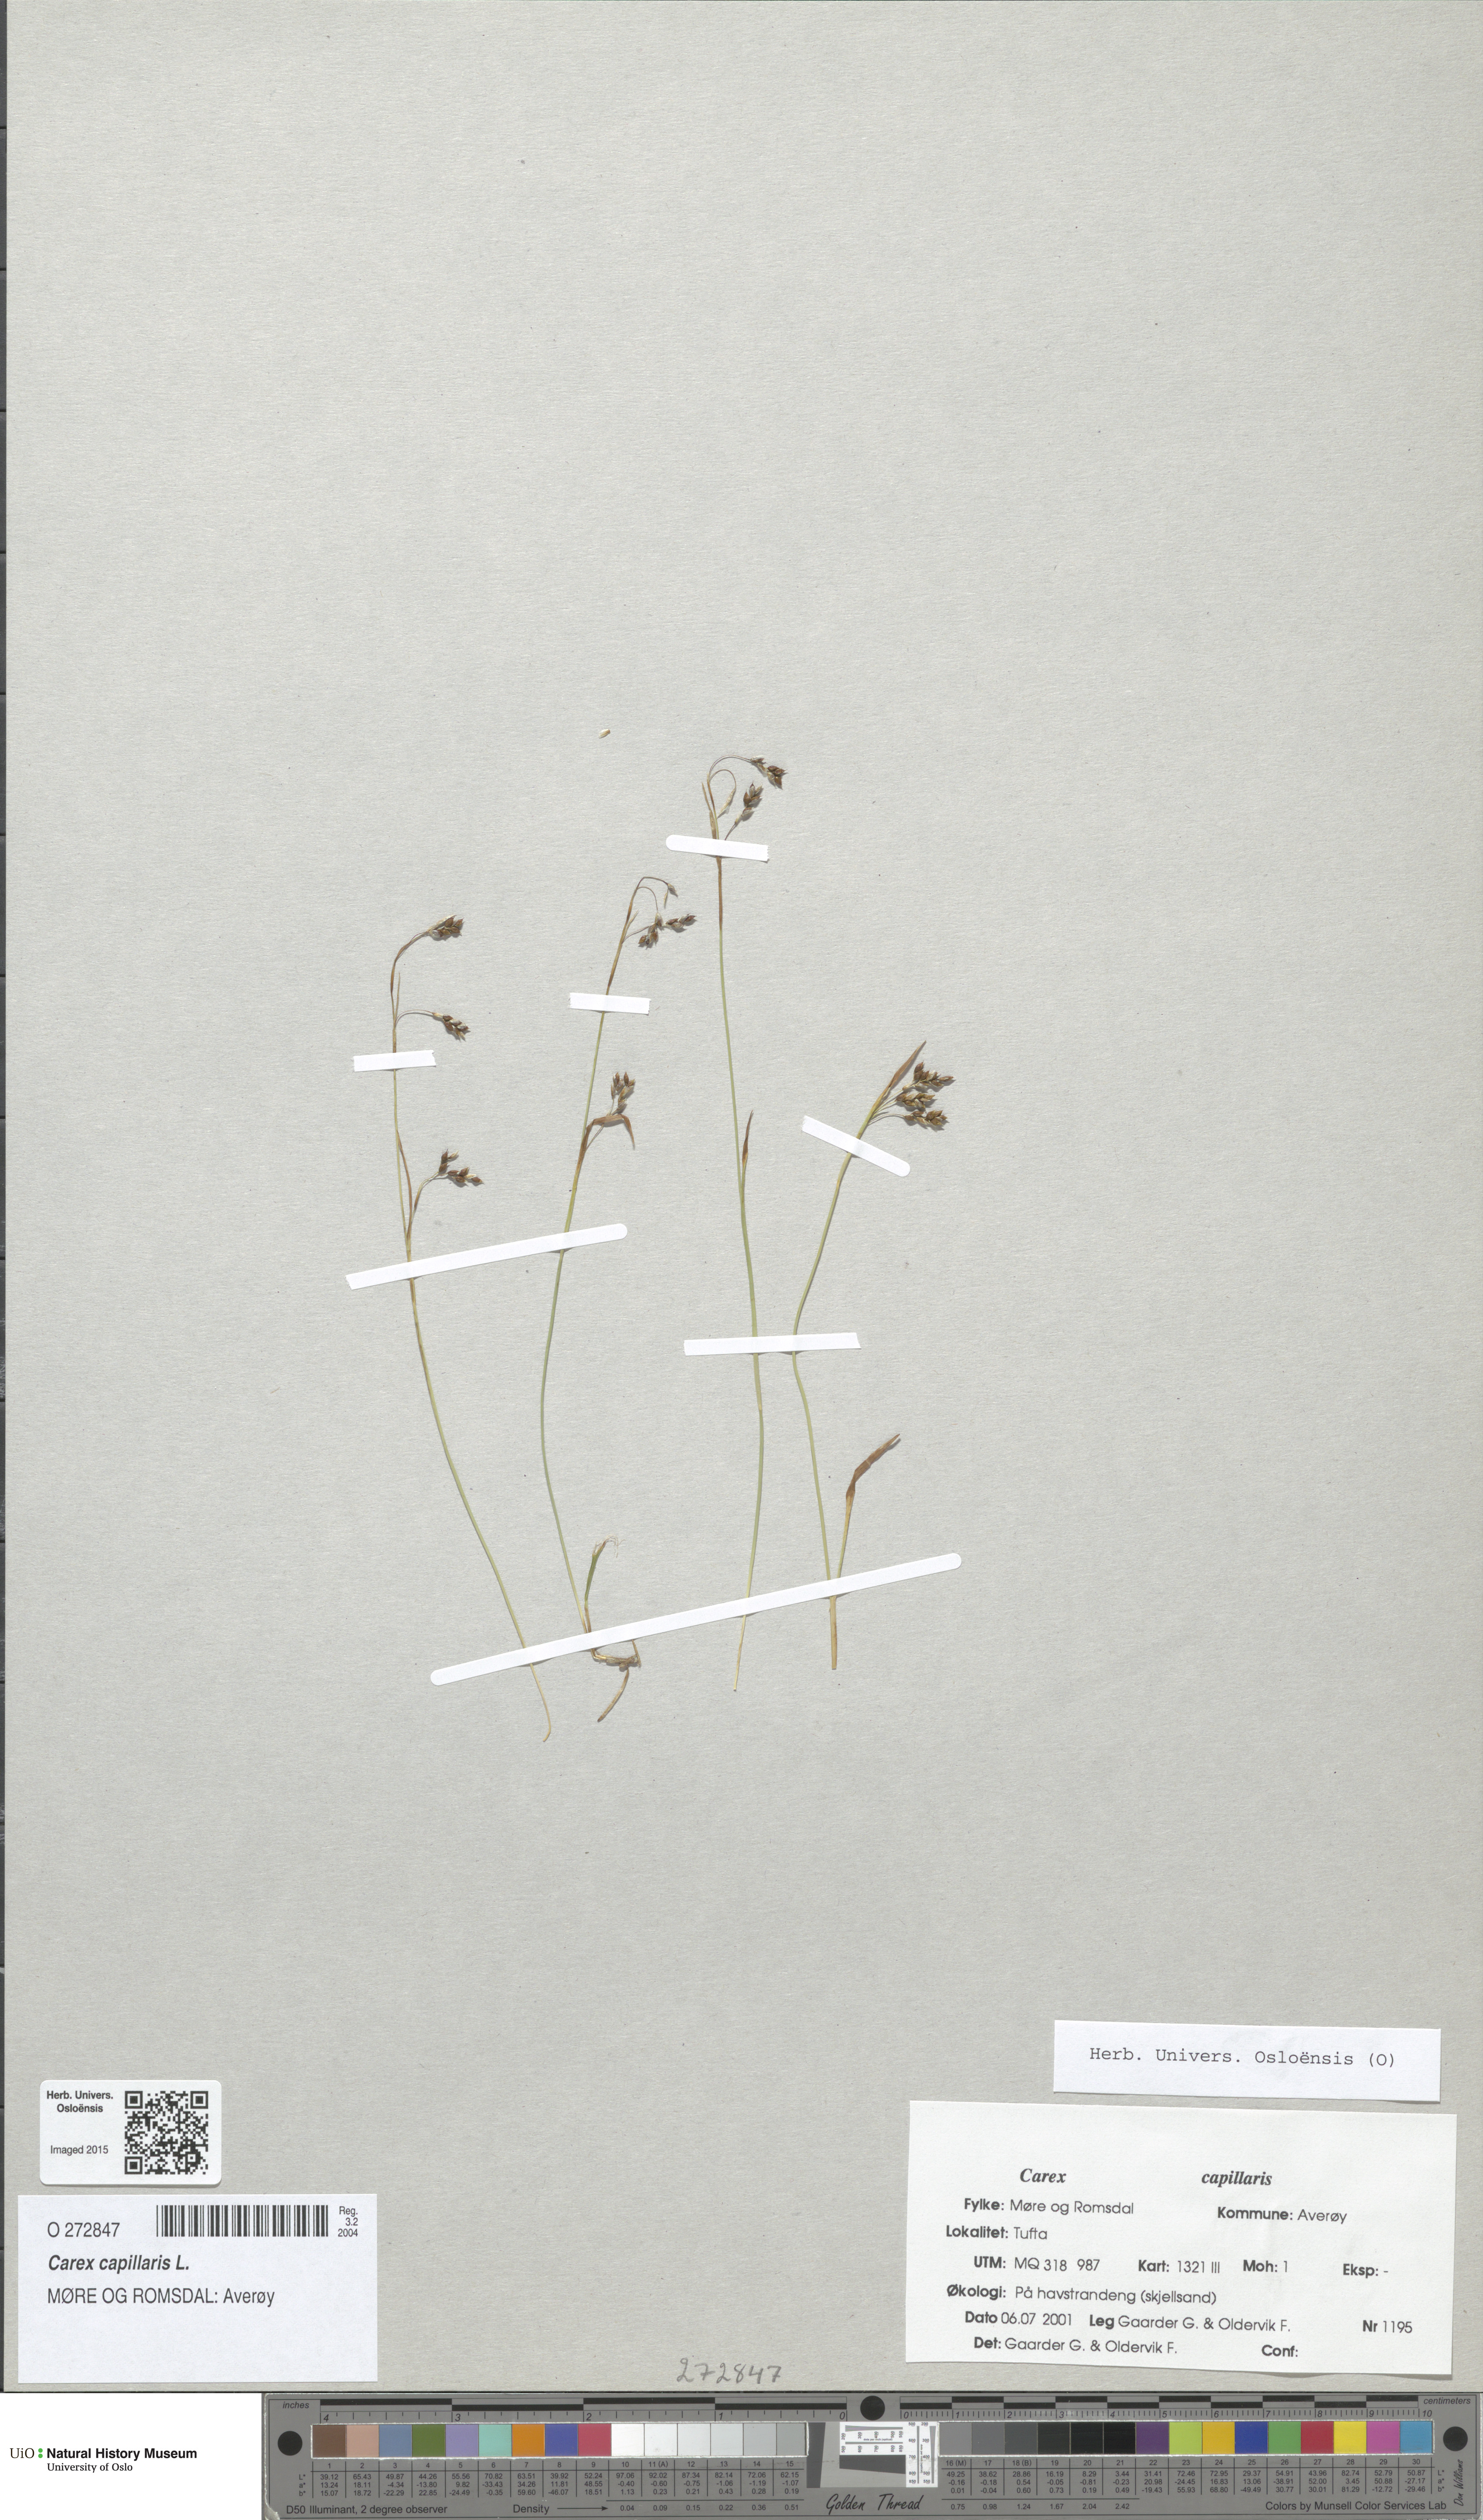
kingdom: Plantae
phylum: Tracheophyta
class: Liliopsida
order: Poales
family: Cyperaceae
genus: Carex
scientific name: Carex capillaris
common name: Hair sedge
